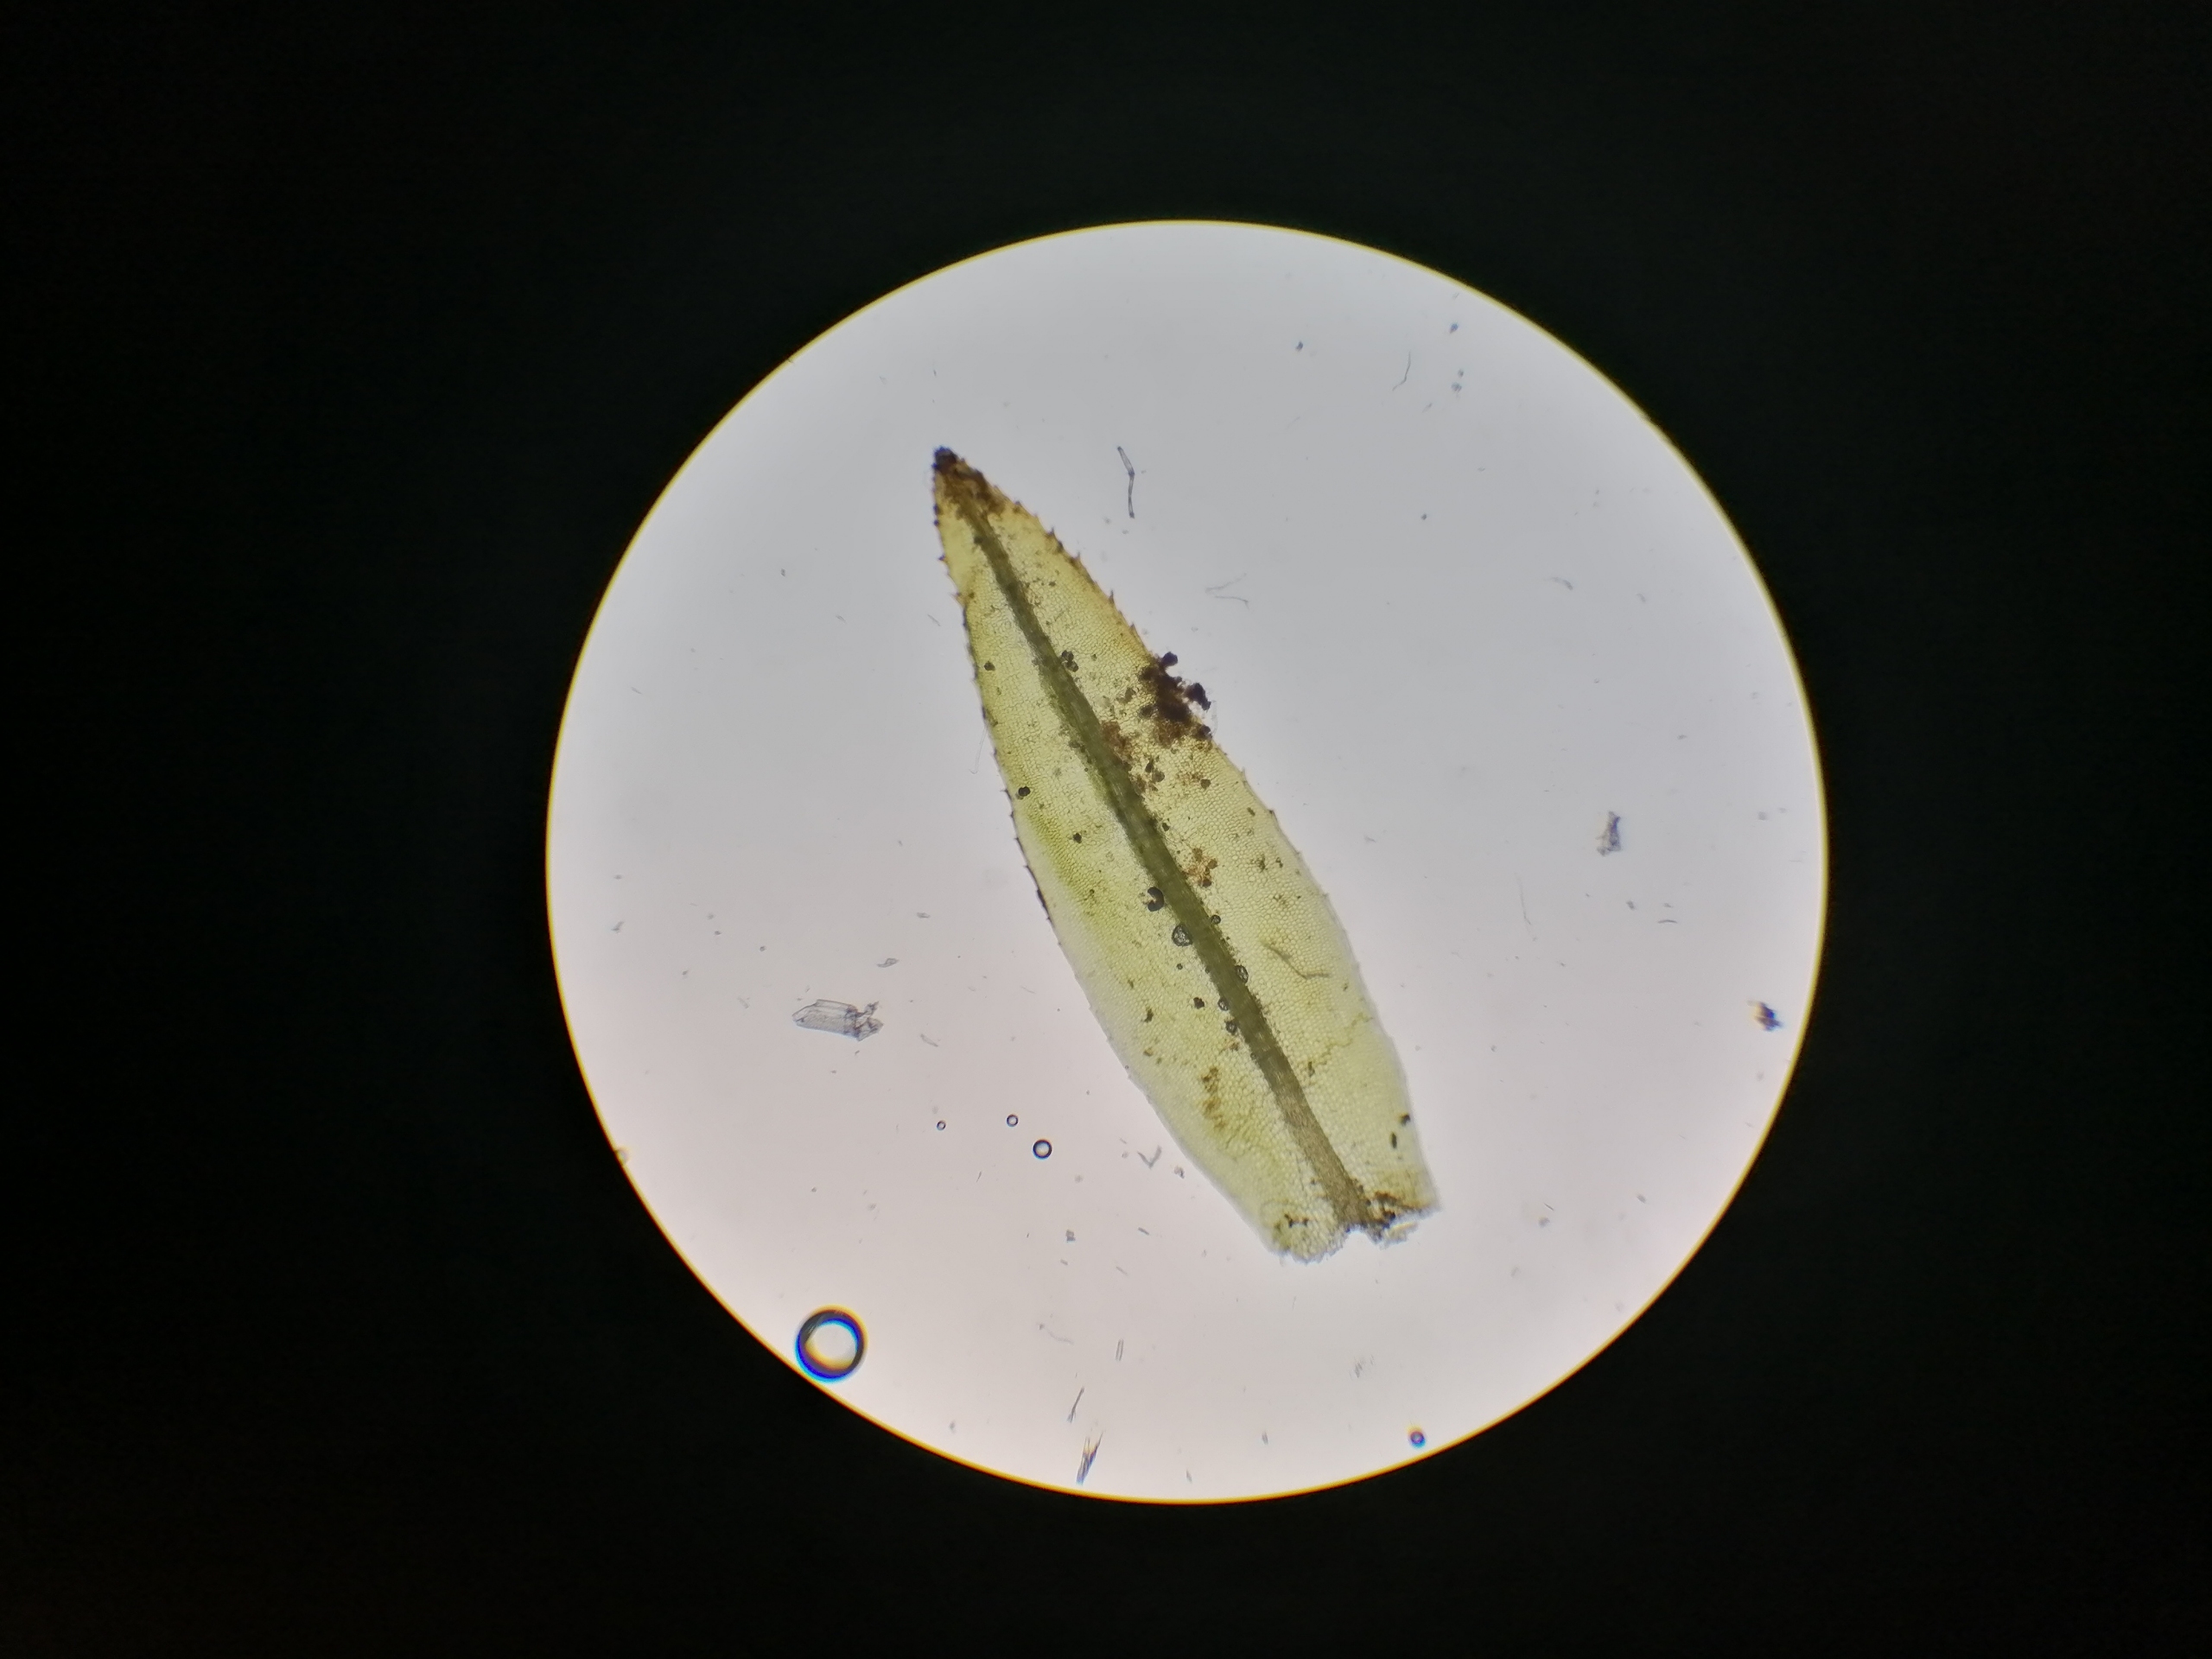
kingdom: Plantae
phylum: Bryophyta
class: Polytrichopsida
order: Polytrichales
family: Polytrichaceae
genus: Atrichum
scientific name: Atrichum tenellum
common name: Lille katrinemos
